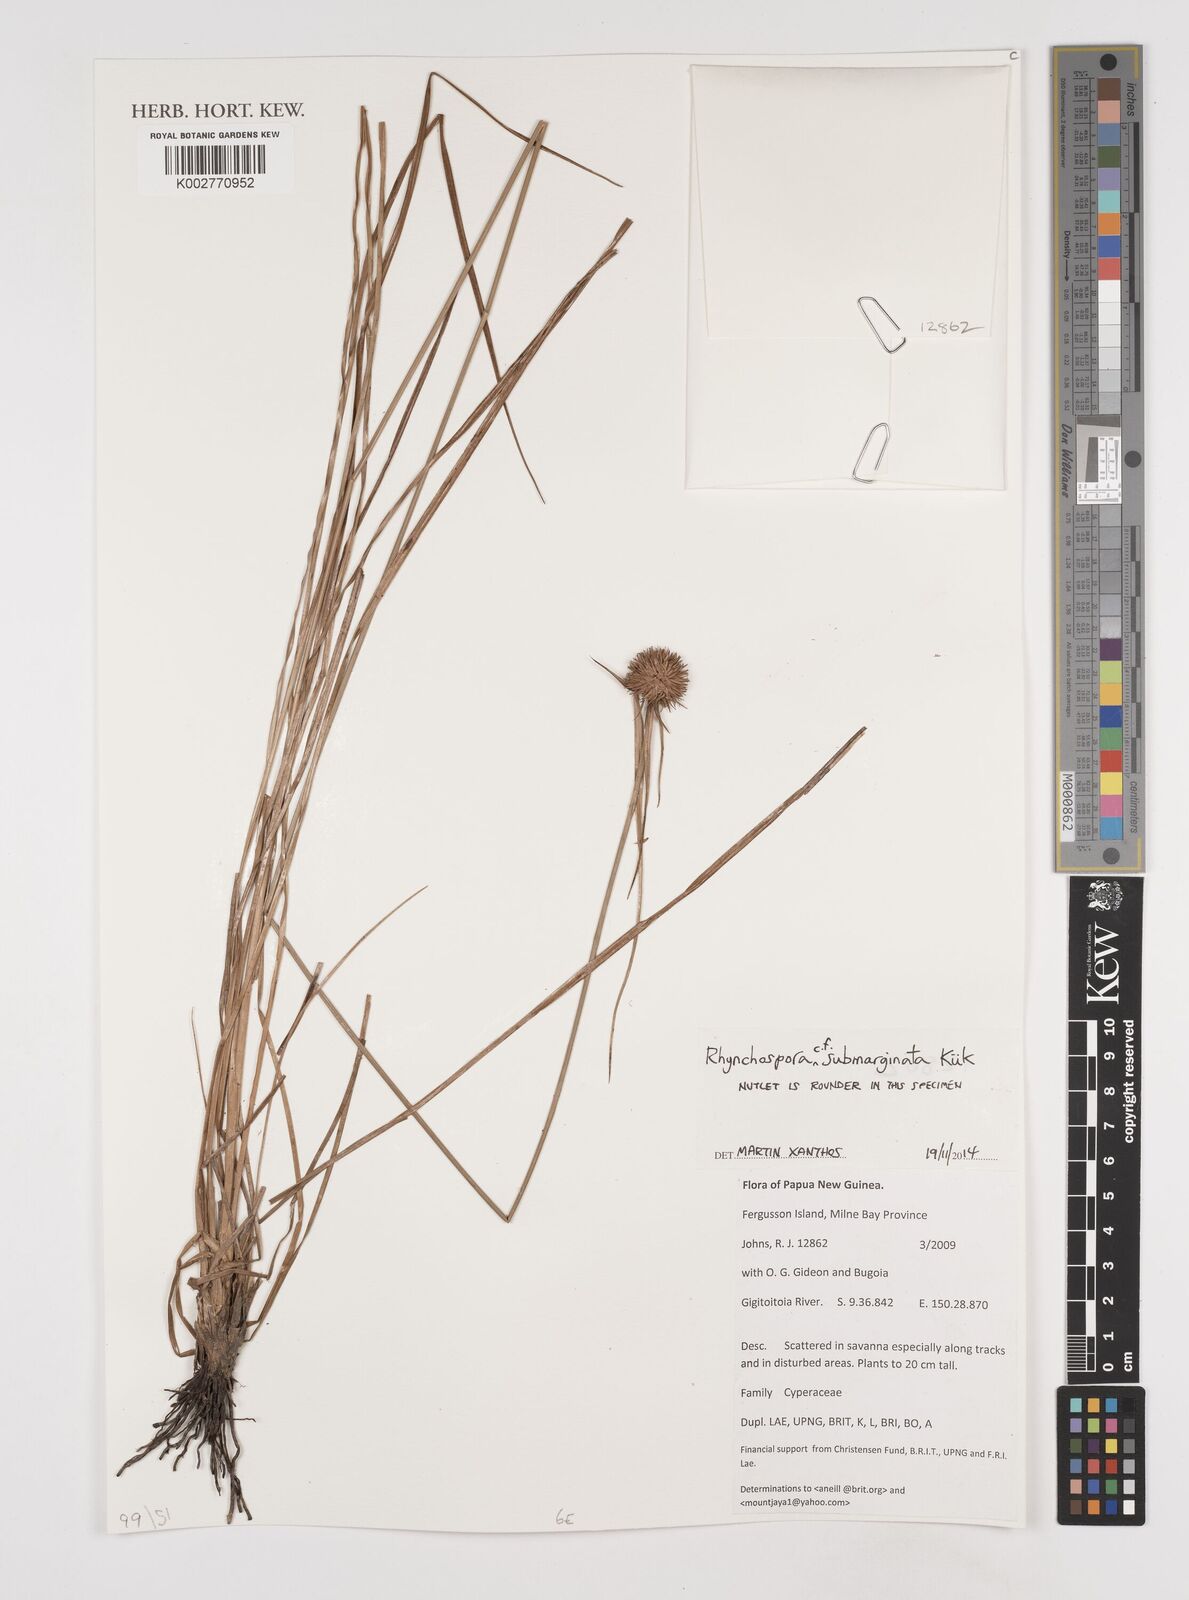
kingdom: Plantae
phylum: Tracheophyta
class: Liliopsida
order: Poales
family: Cyperaceae
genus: Rhynchospora
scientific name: Rhynchospora submarginata
